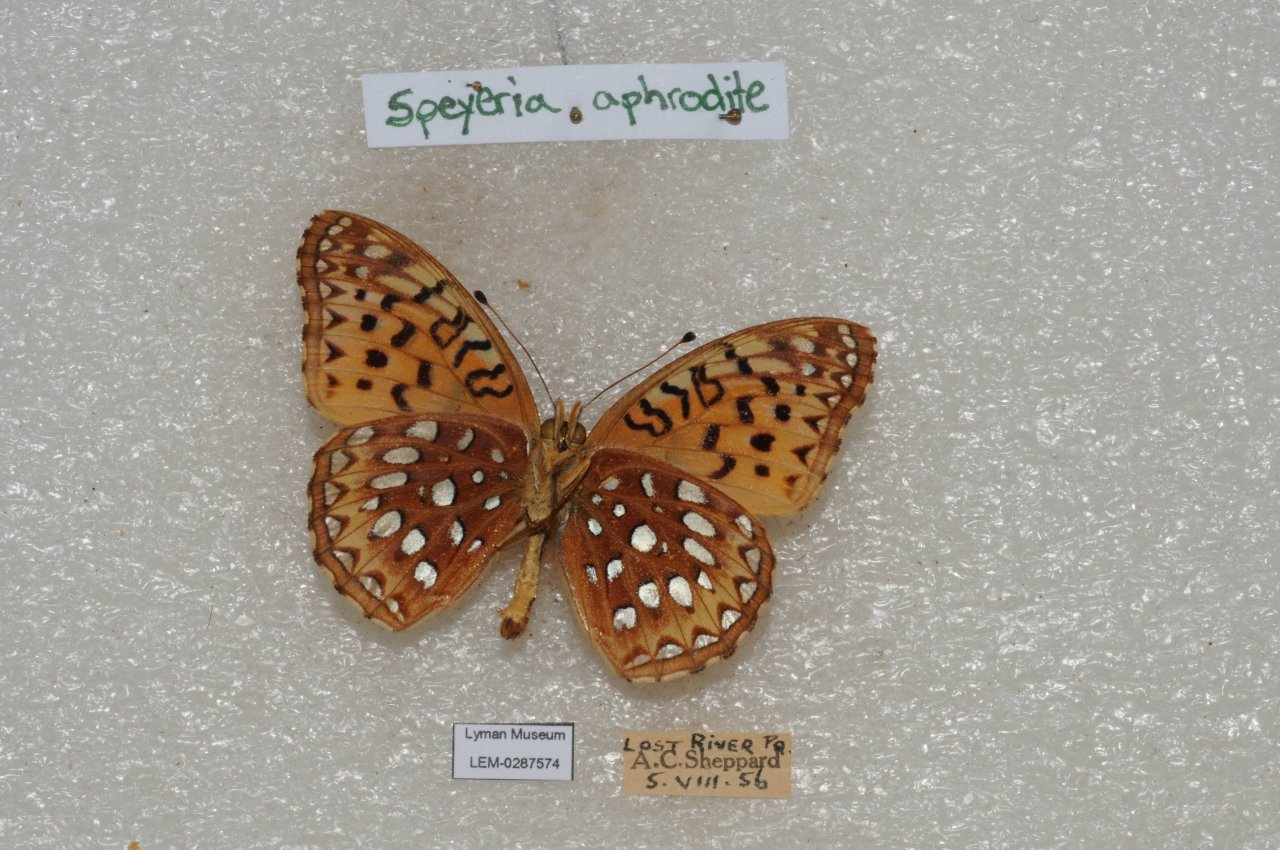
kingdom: Animalia
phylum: Arthropoda
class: Insecta
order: Lepidoptera
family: Nymphalidae
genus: Speyeria
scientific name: Speyeria aphrodite
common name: Aphrodite Fritillary
